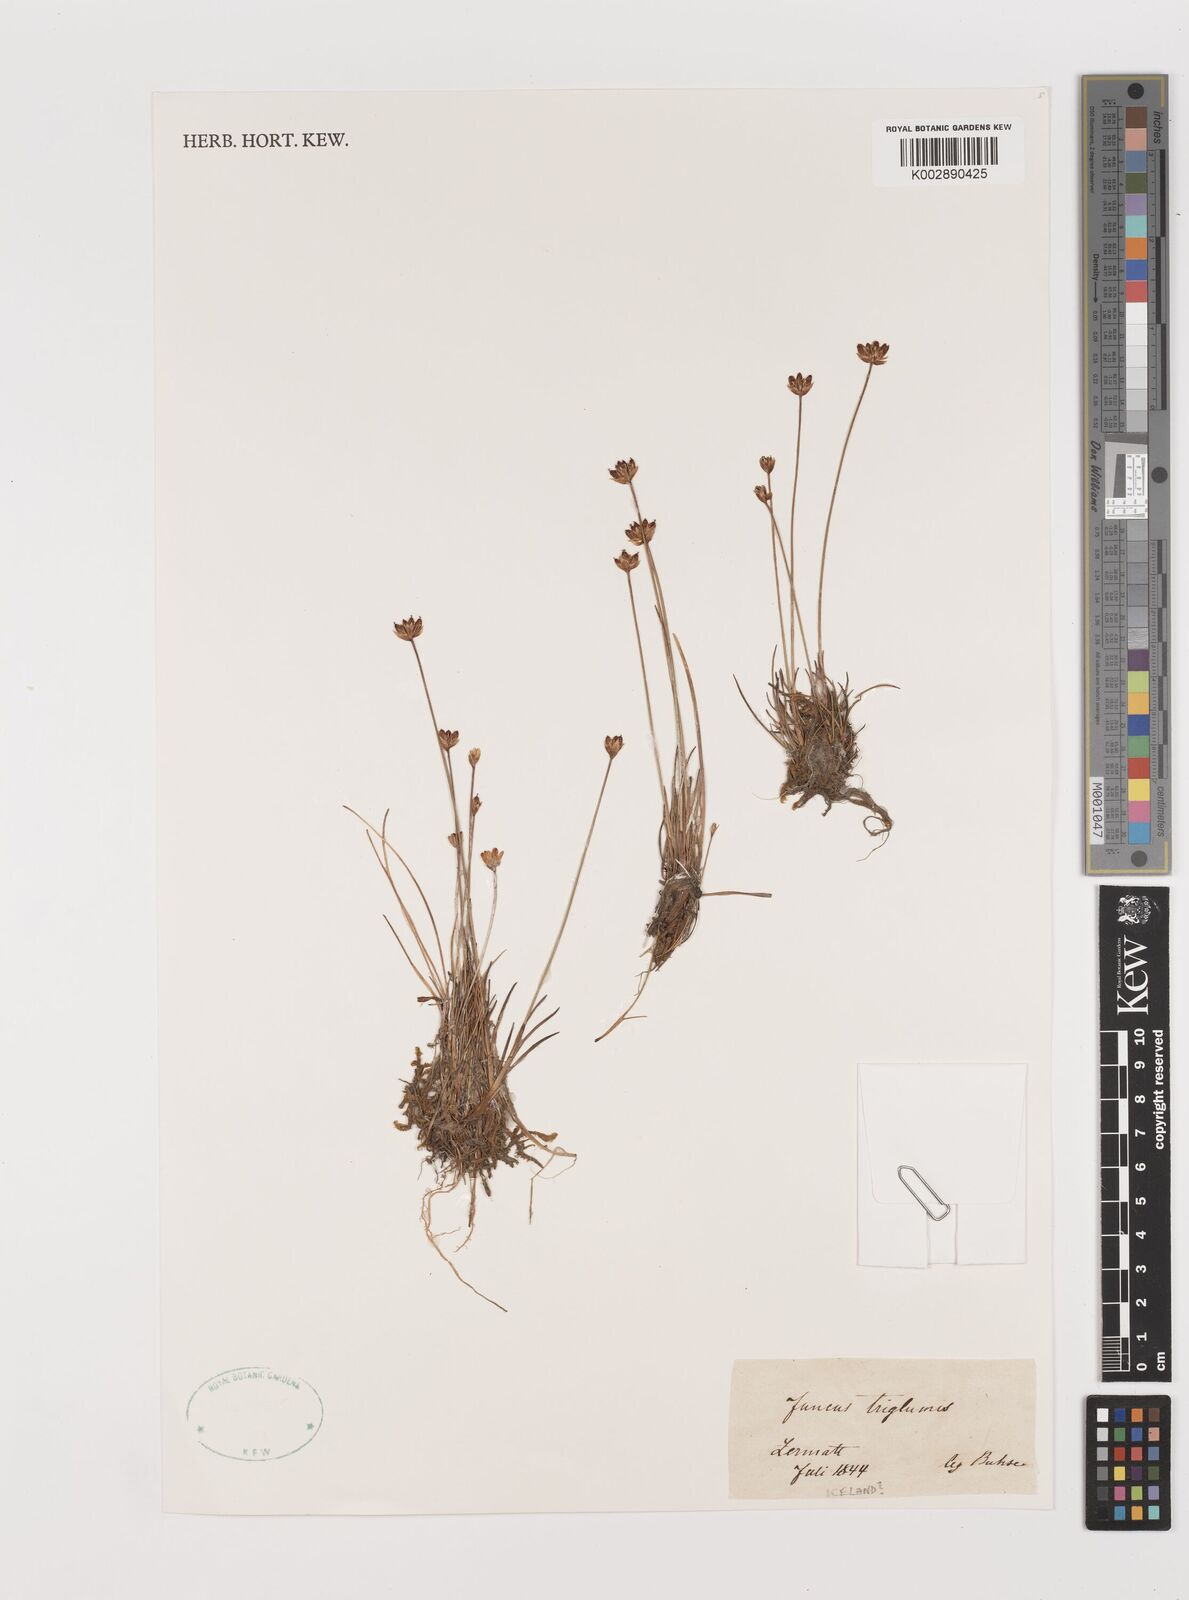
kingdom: Plantae
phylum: Tracheophyta
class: Liliopsida
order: Poales
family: Juncaceae
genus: Juncus
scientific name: Juncus triglumis
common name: Three-flowered rush
